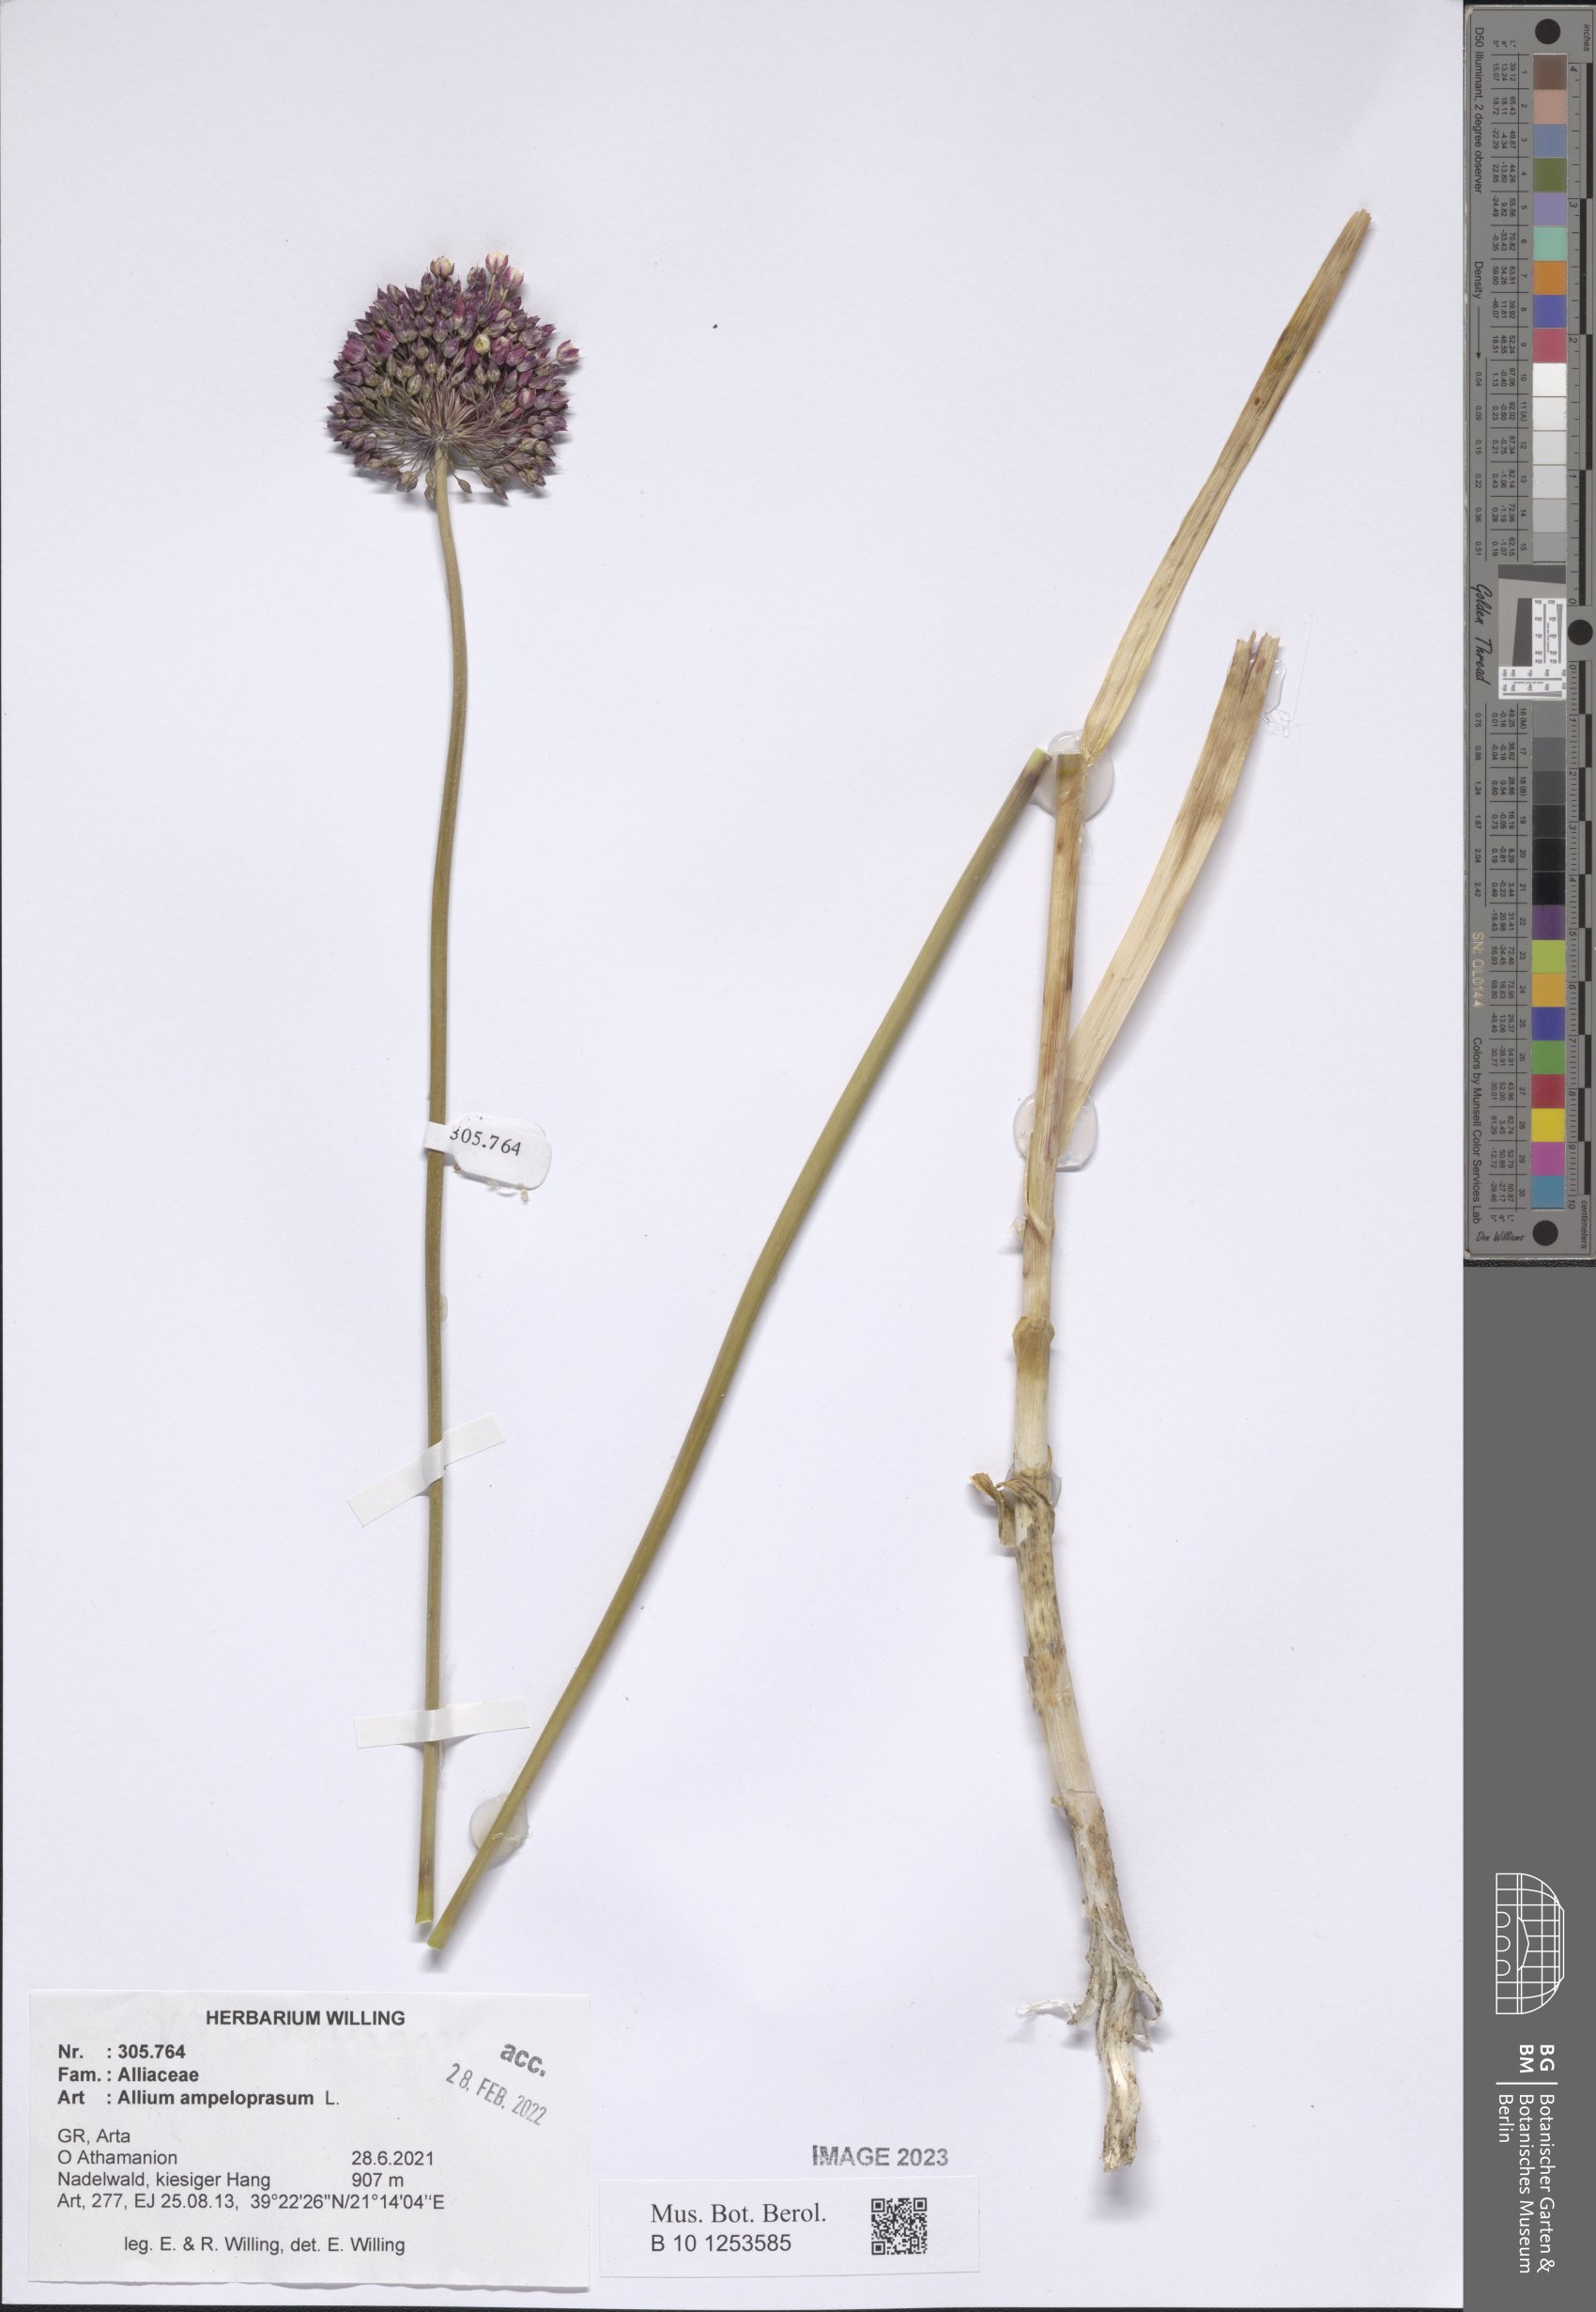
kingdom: Plantae
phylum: Tracheophyta
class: Liliopsida
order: Asparagales
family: Amaryllidaceae
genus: Allium
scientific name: Allium ampeloprasum
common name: Wild leek
